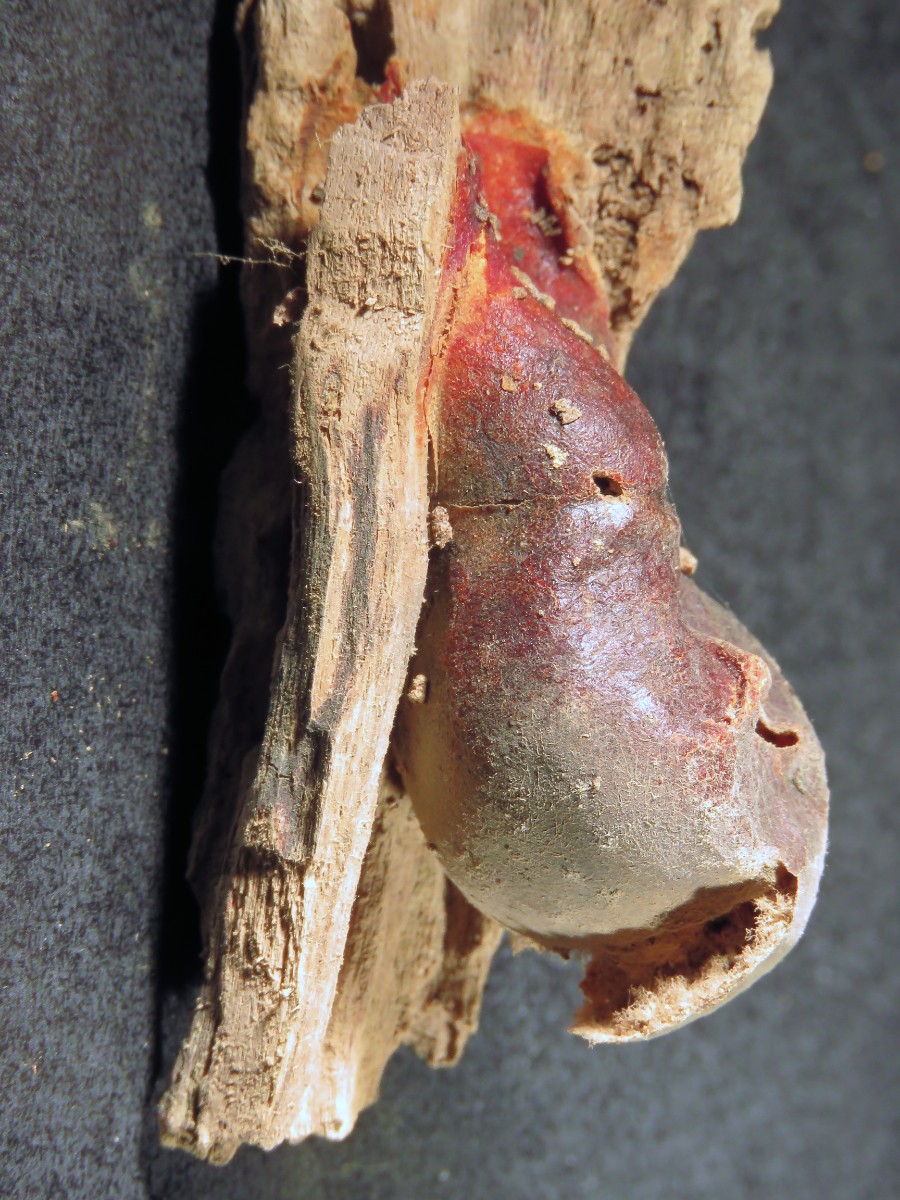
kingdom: Protozoa
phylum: Mycetozoa
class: Myxomycetes
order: Cribrariales
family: Tubiferaceae
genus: Lycogala
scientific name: Lycogala flavofuscum
